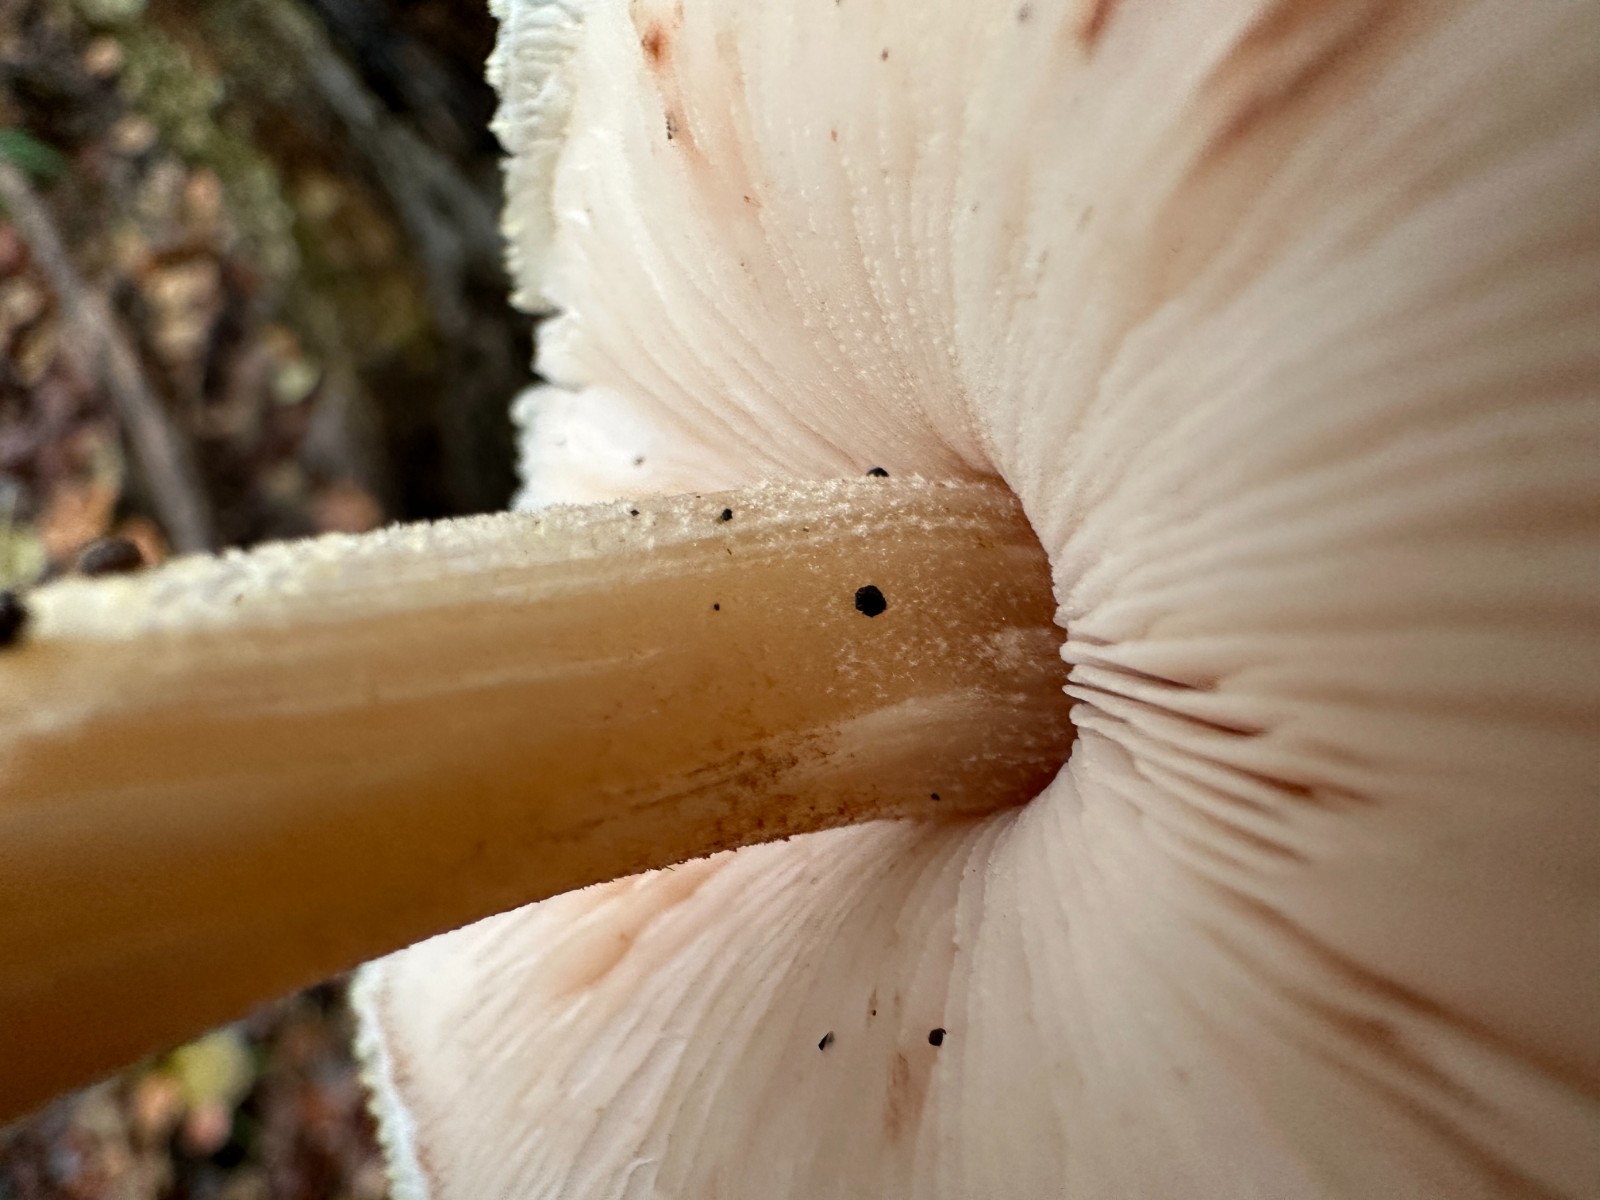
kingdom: Fungi
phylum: Basidiomycota
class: Agaricomycetes
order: Agaricales
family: Pluteaceae
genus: Pluteus
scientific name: Pluteus umbrosus
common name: Velvet shield
